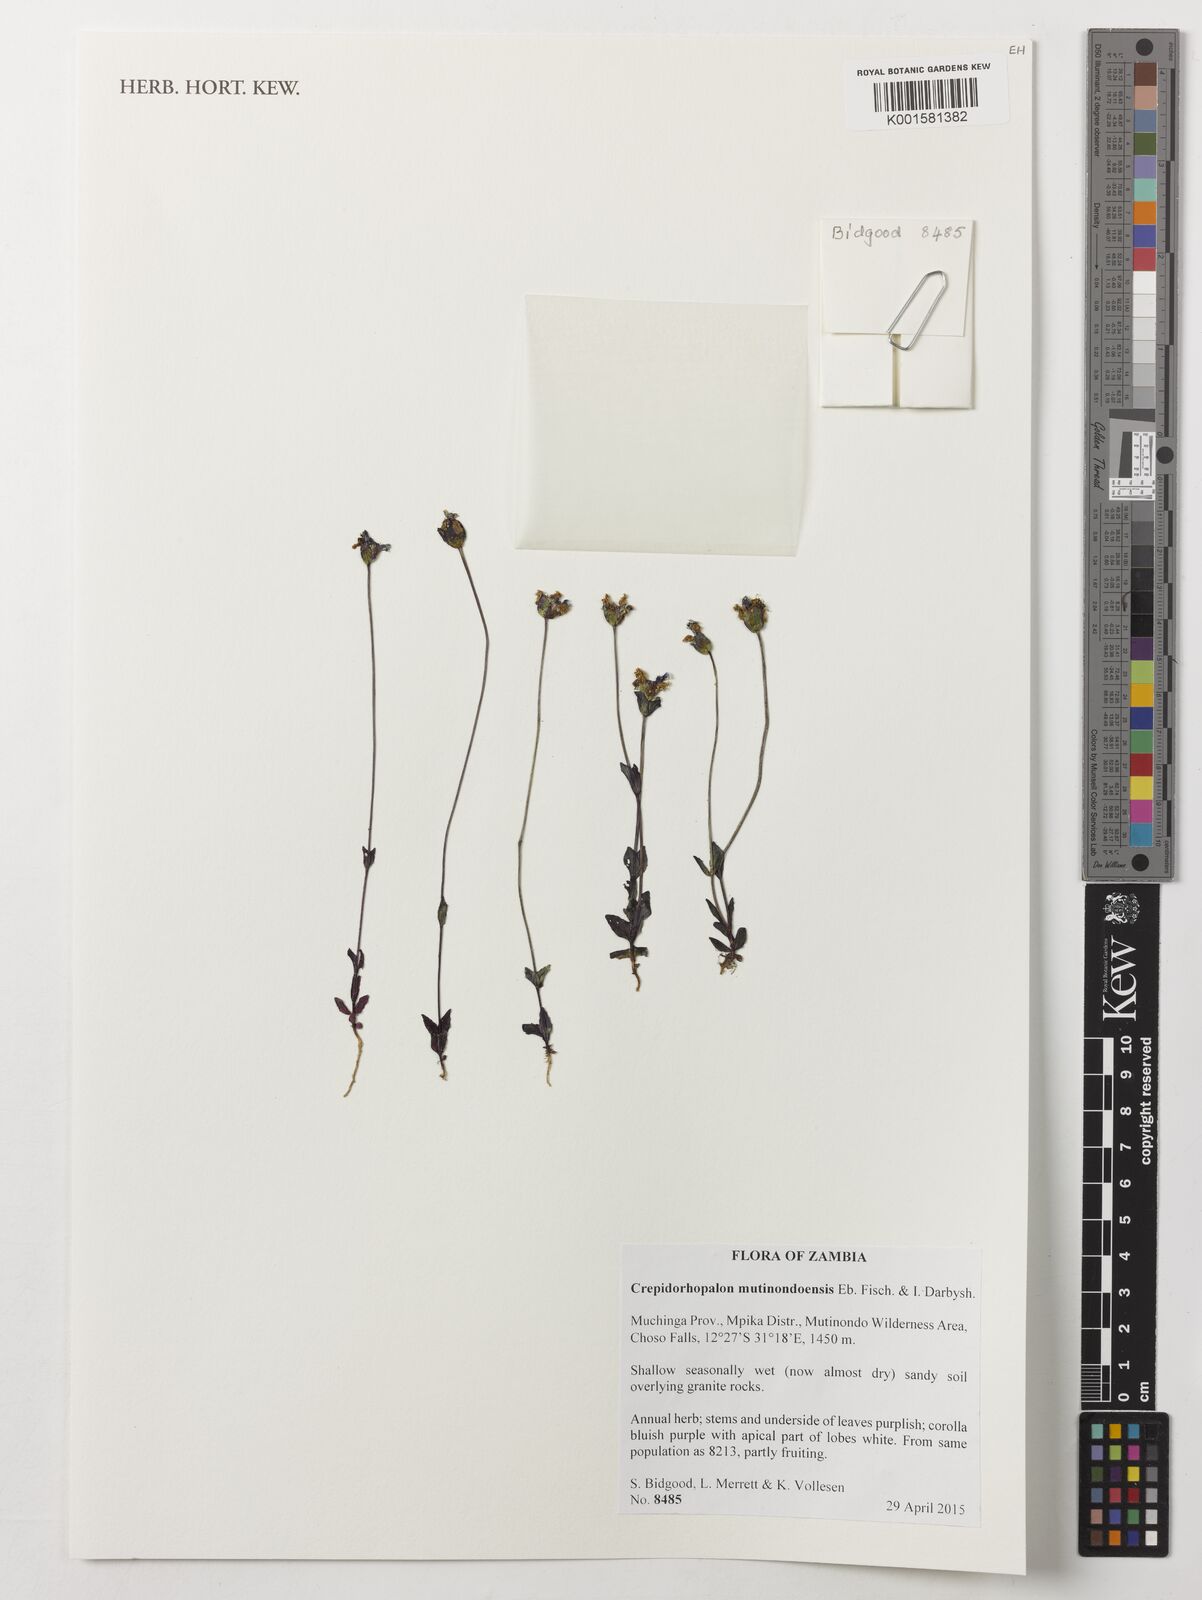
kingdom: Plantae
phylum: Tracheophyta
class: Magnoliopsida
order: Lamiales
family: Linderniaceae
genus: Crepidorhopalon
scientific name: Crepidorhopalon mutinondoensis
